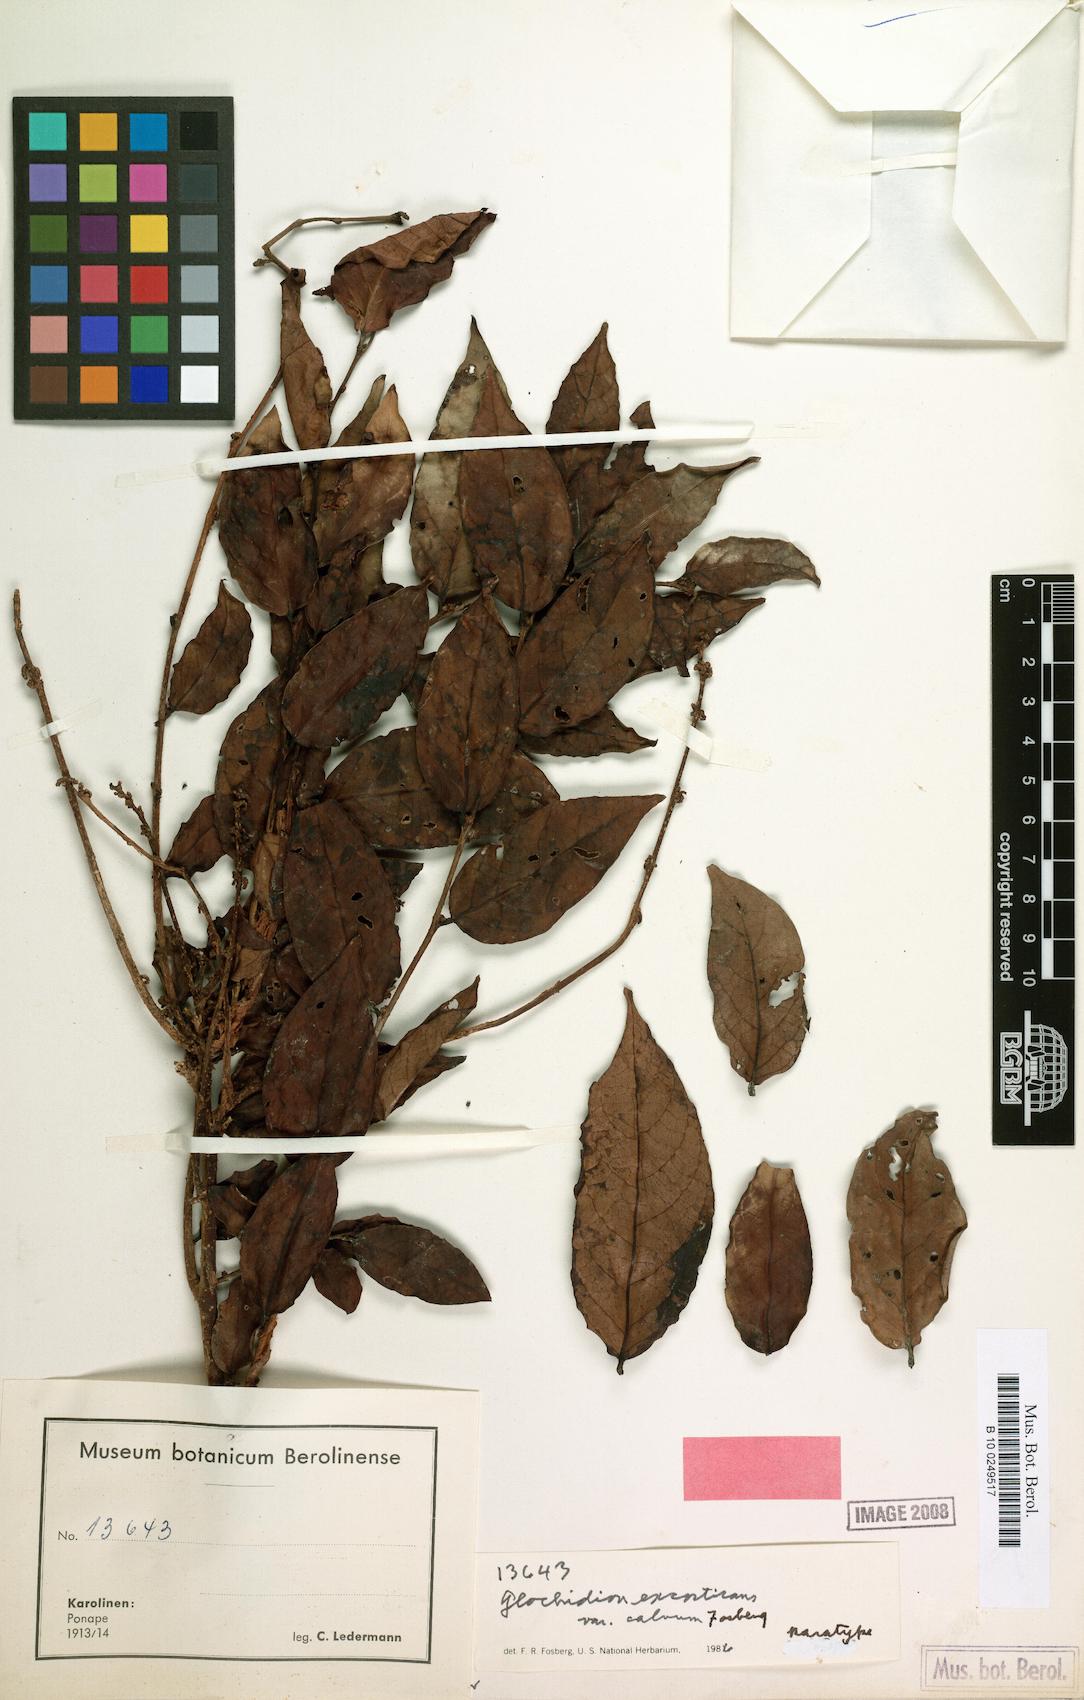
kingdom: Plantae
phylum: Tracheophyta
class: Magnoliopsida
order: Malpighiales
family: Phyllanthaceae
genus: Glochidion
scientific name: Glochidion ponapense
